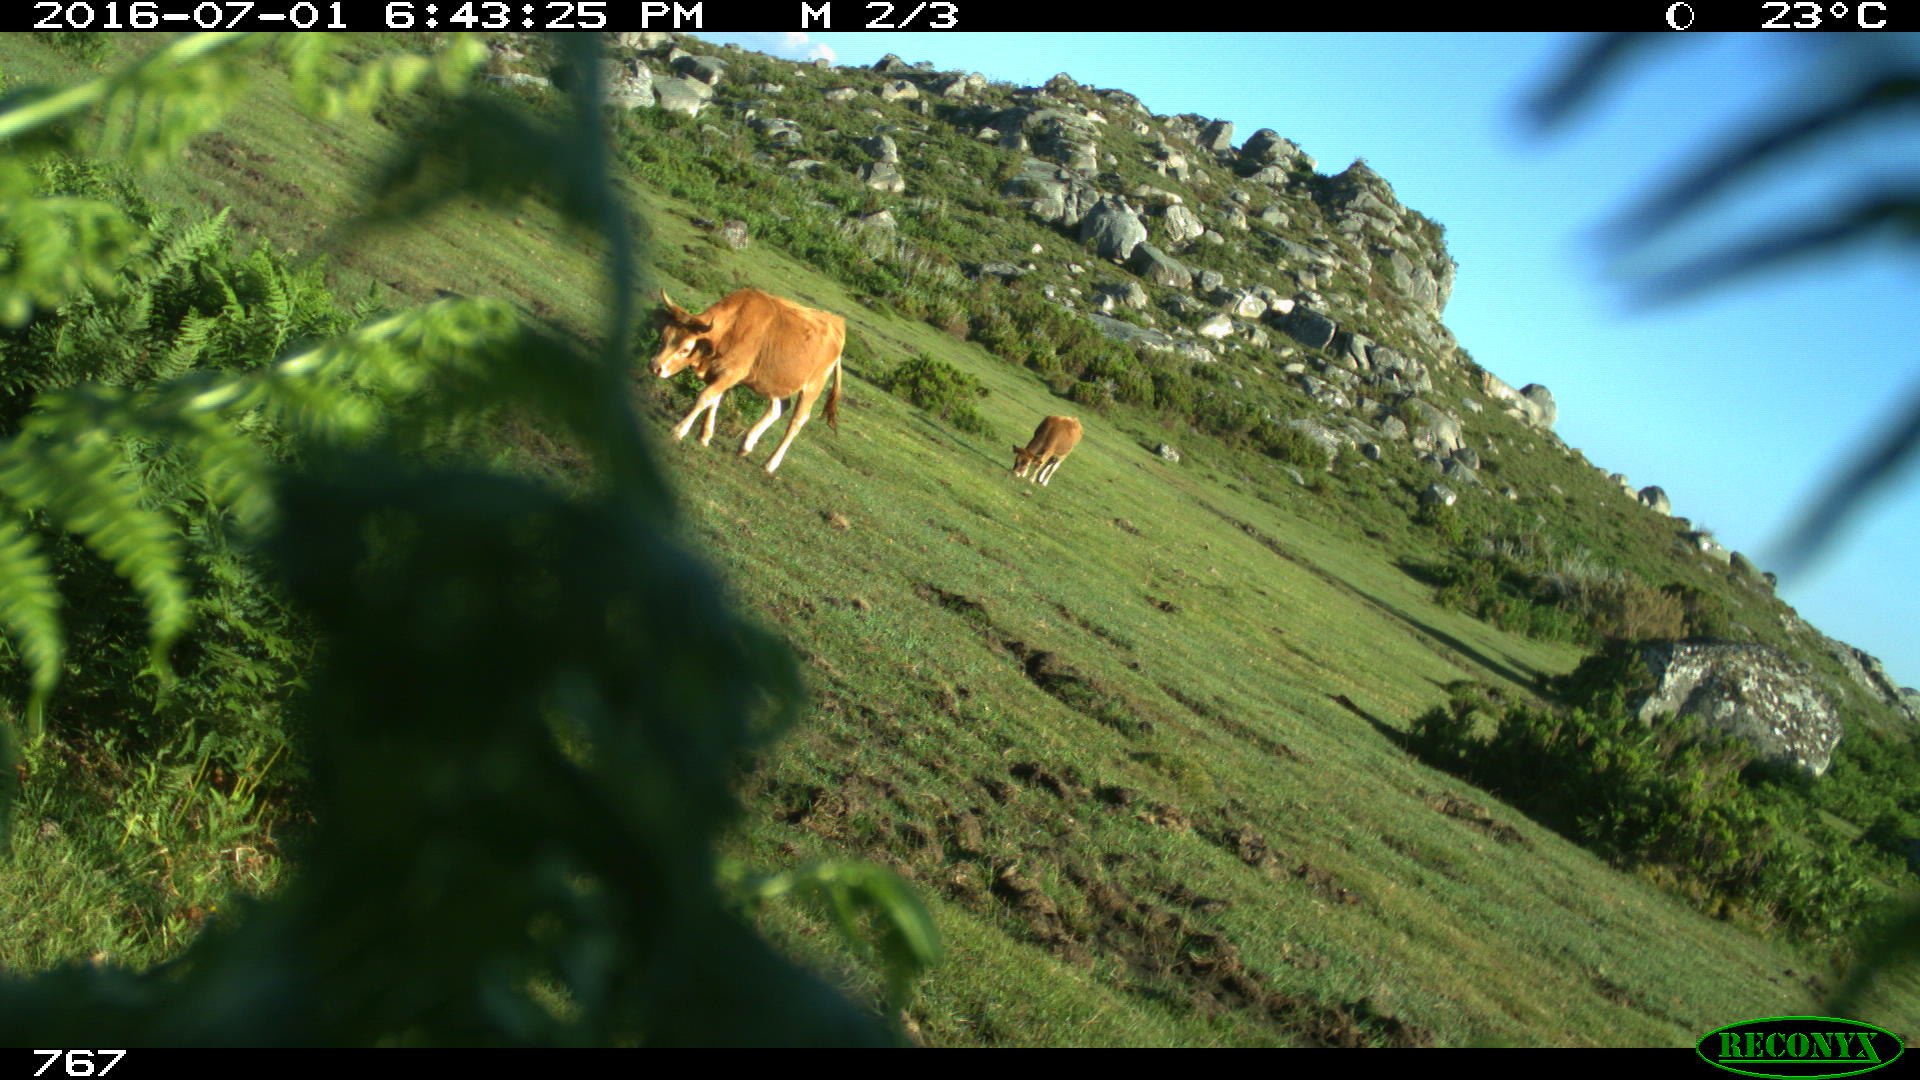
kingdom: Animalia
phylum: Chordata
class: Mammalia
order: Artiodactyla
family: Bovidae
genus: Bos
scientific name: Bos taurus
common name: Domesticated cattle
